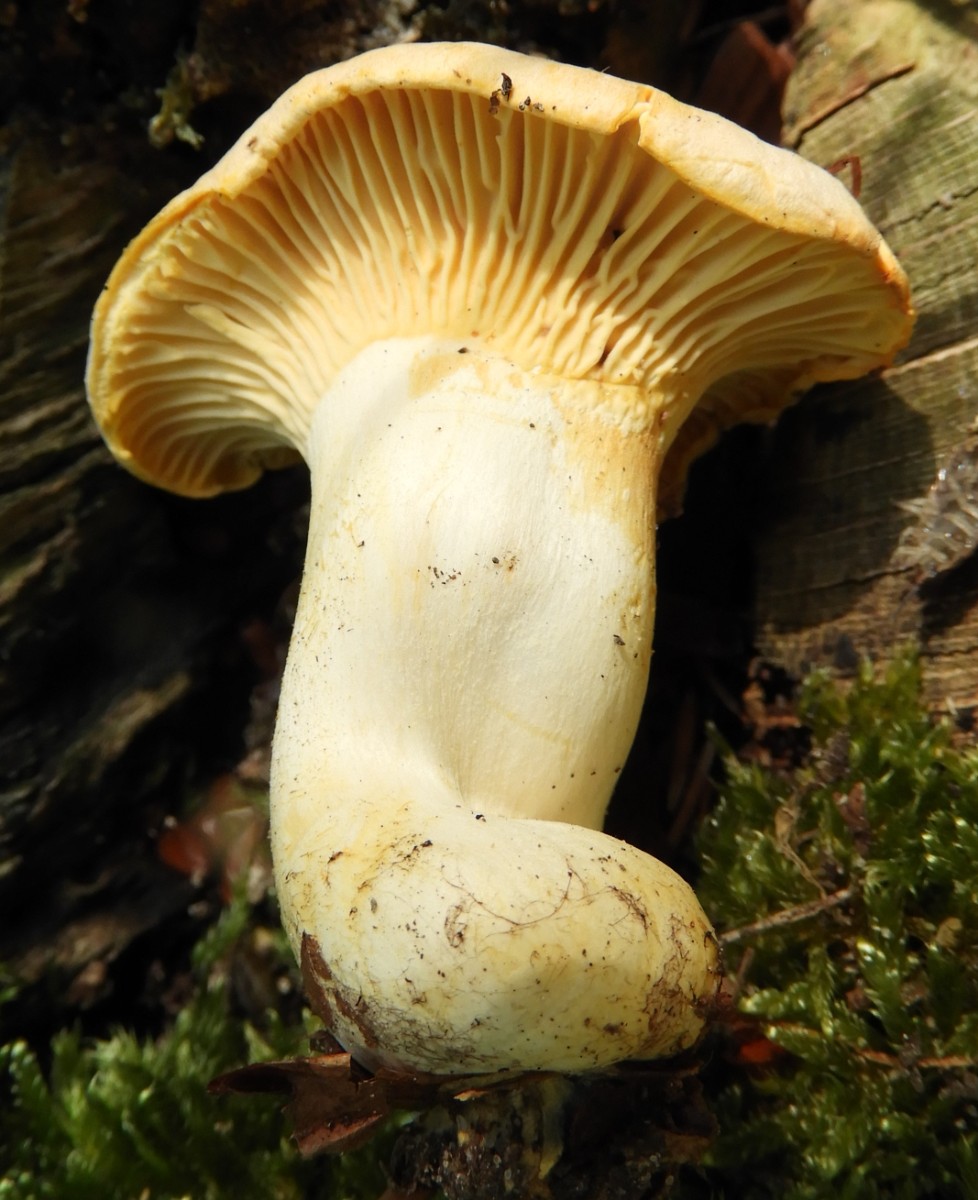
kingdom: Fungi
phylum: Basidiomycota
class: Agaricomycetes
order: Cantharellales
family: Hydnaceae
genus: Cantharellus
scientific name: Cantharellus pallens
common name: bleg kantarel
